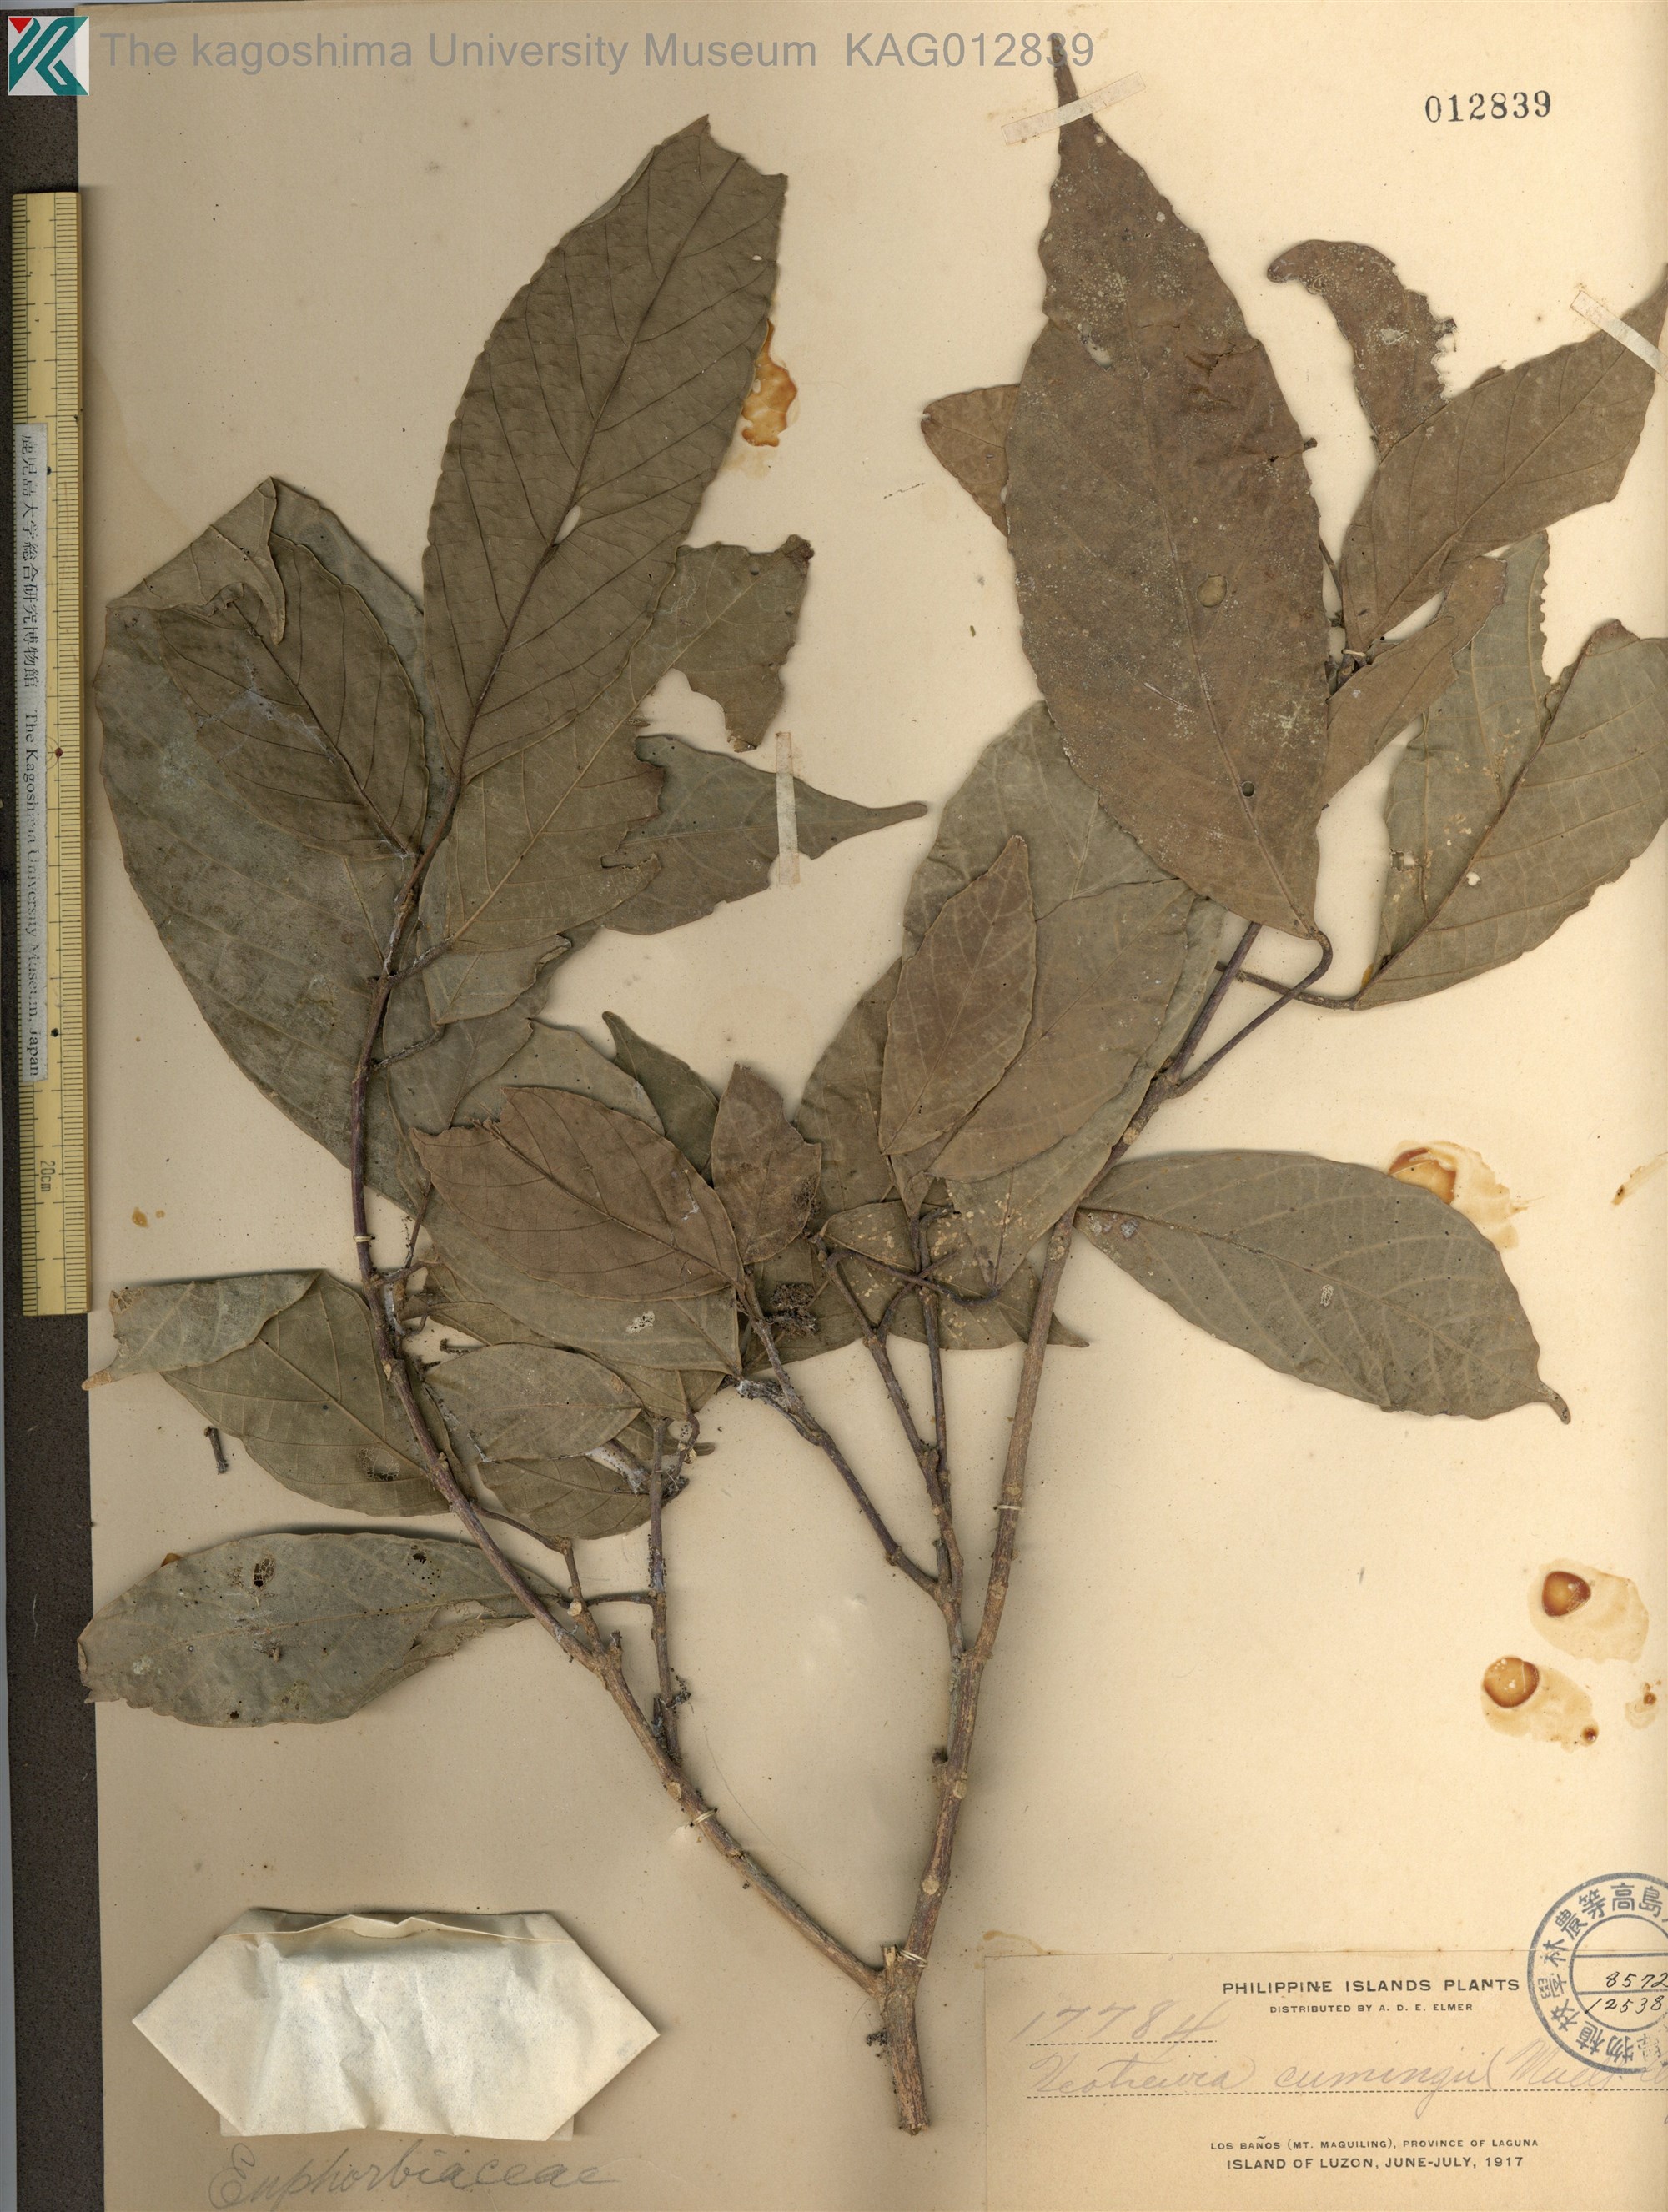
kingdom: Plantae
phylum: Tracheophyta
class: Magnoliopsida
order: Malpighiales
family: Euphorbiaceae
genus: Mallotus
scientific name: Mallotus cumingii
